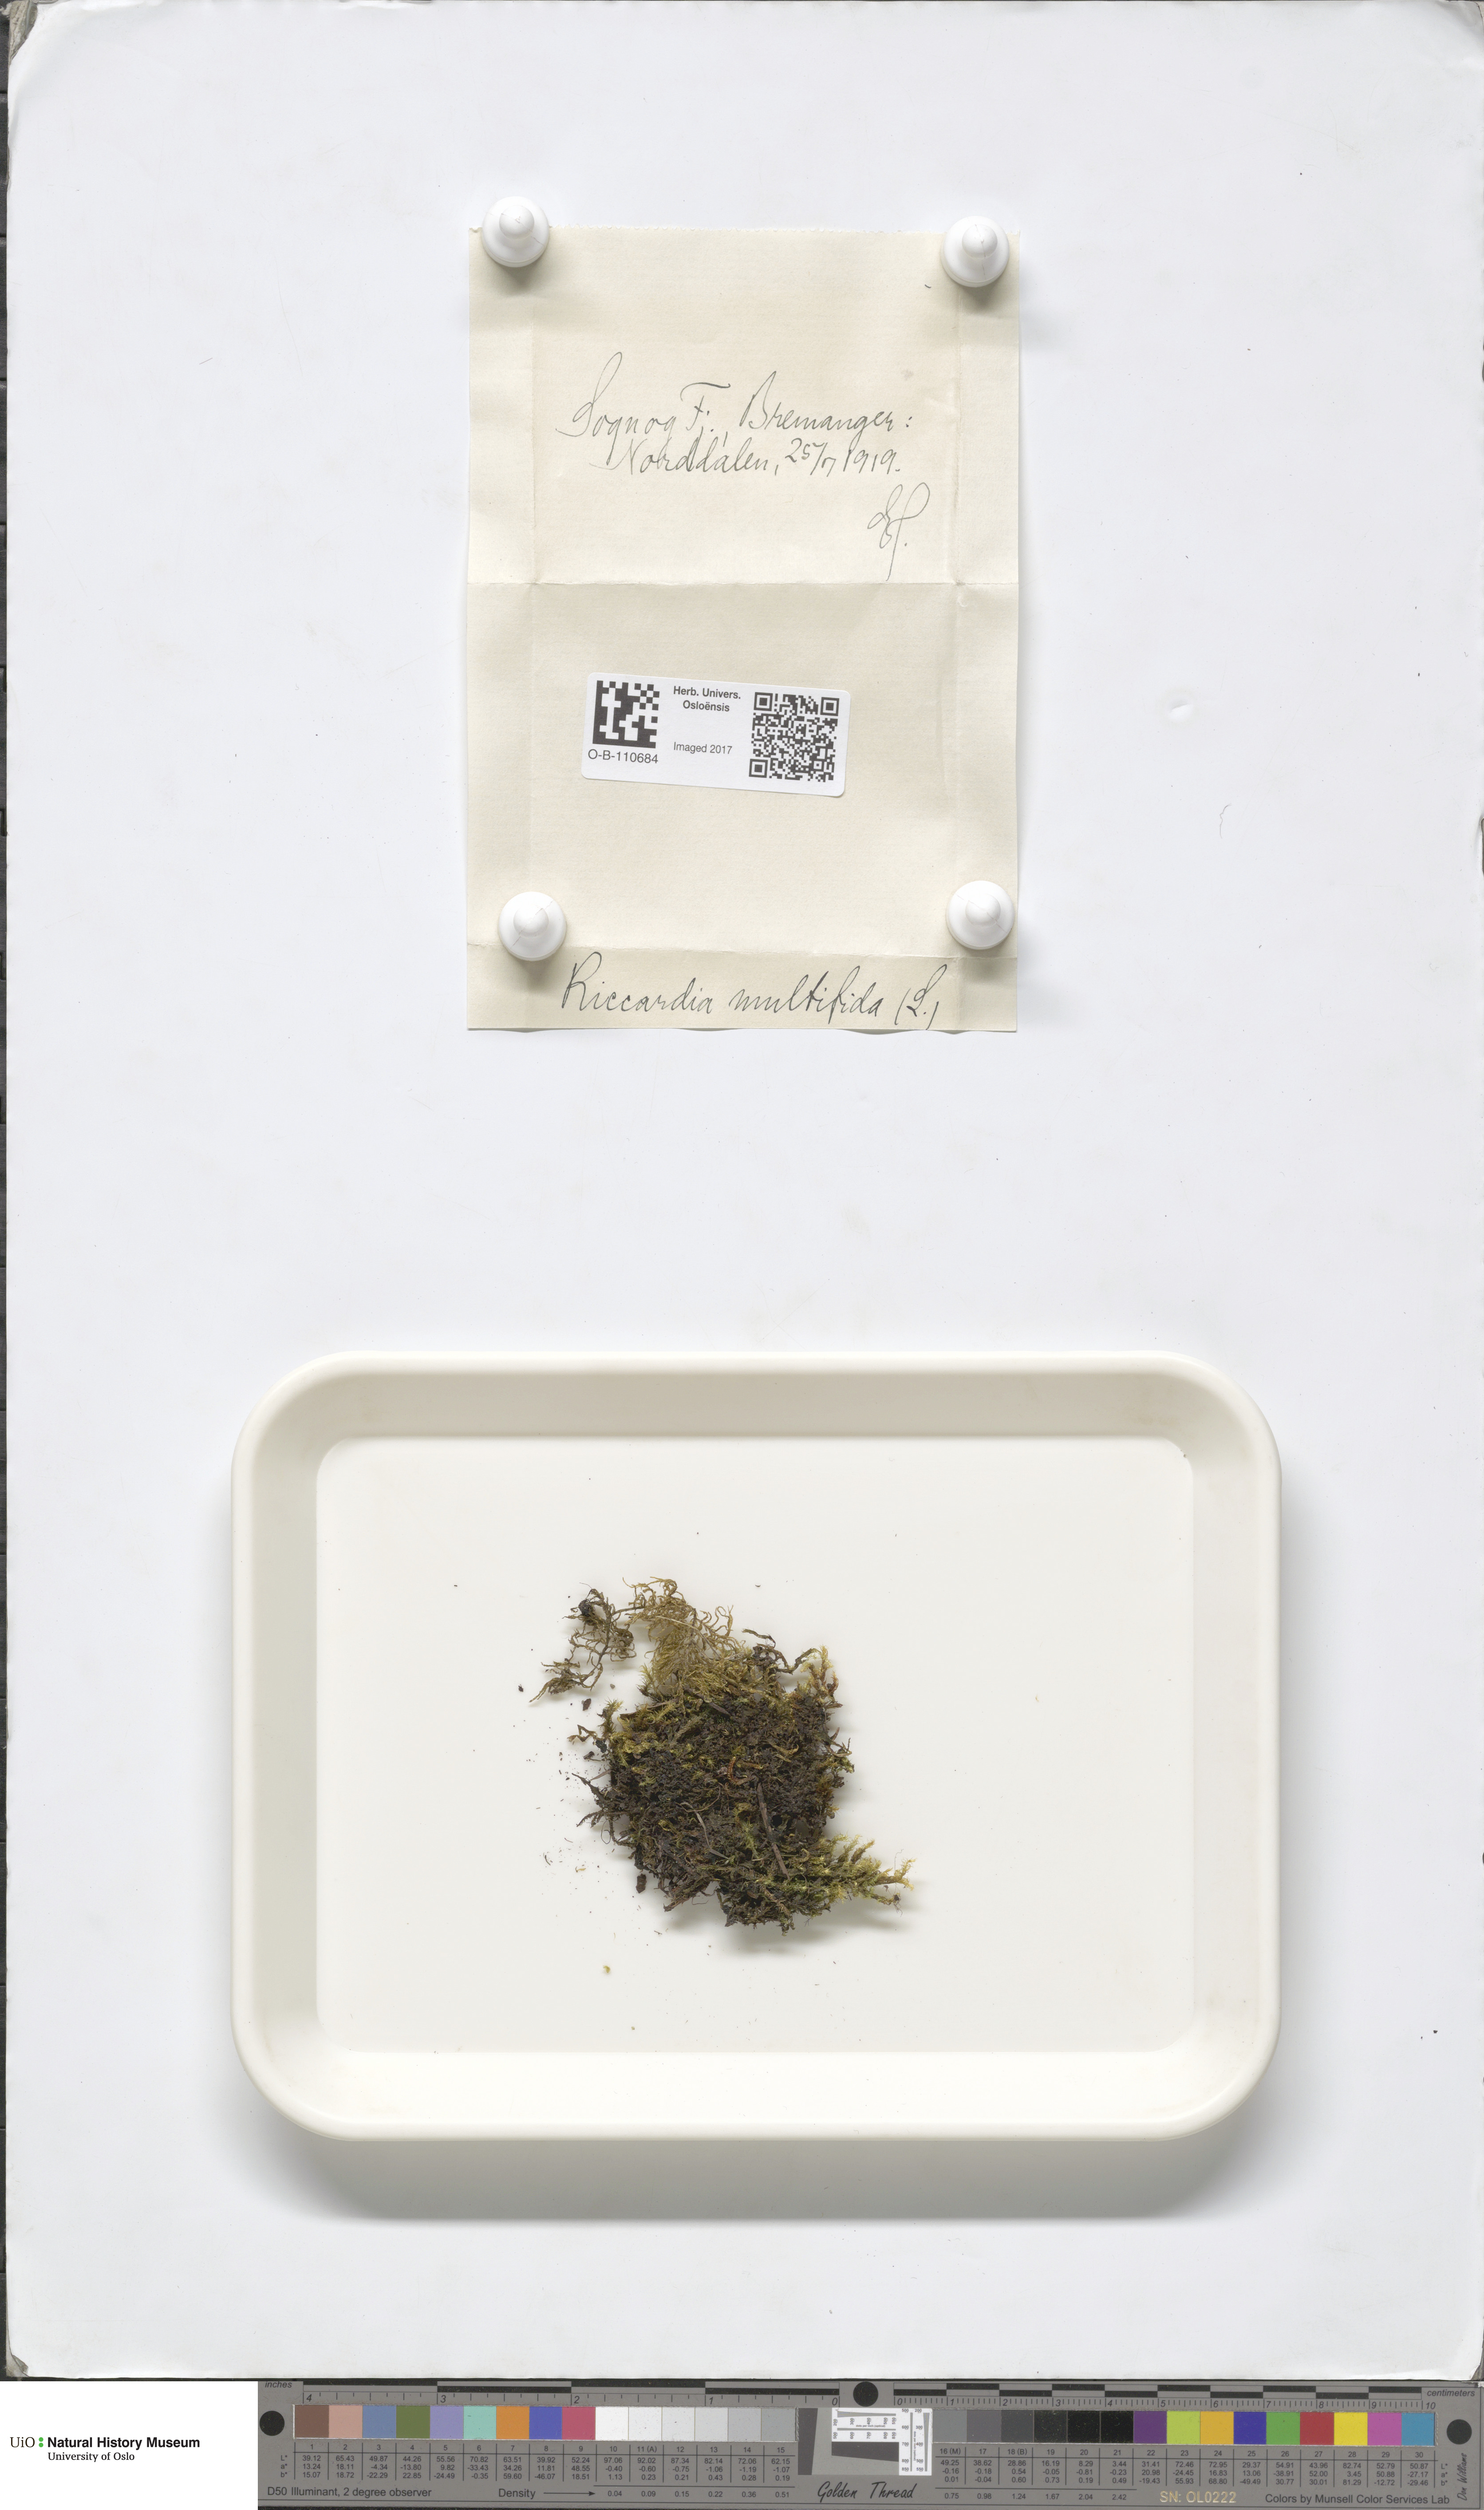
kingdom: Plantae
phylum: Marchantiophyta
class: Jungermanniopsida
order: Metzgeriales
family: Aneuraceae
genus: Riccardia
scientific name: Riccardia palmata
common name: Palmate germanderwort
